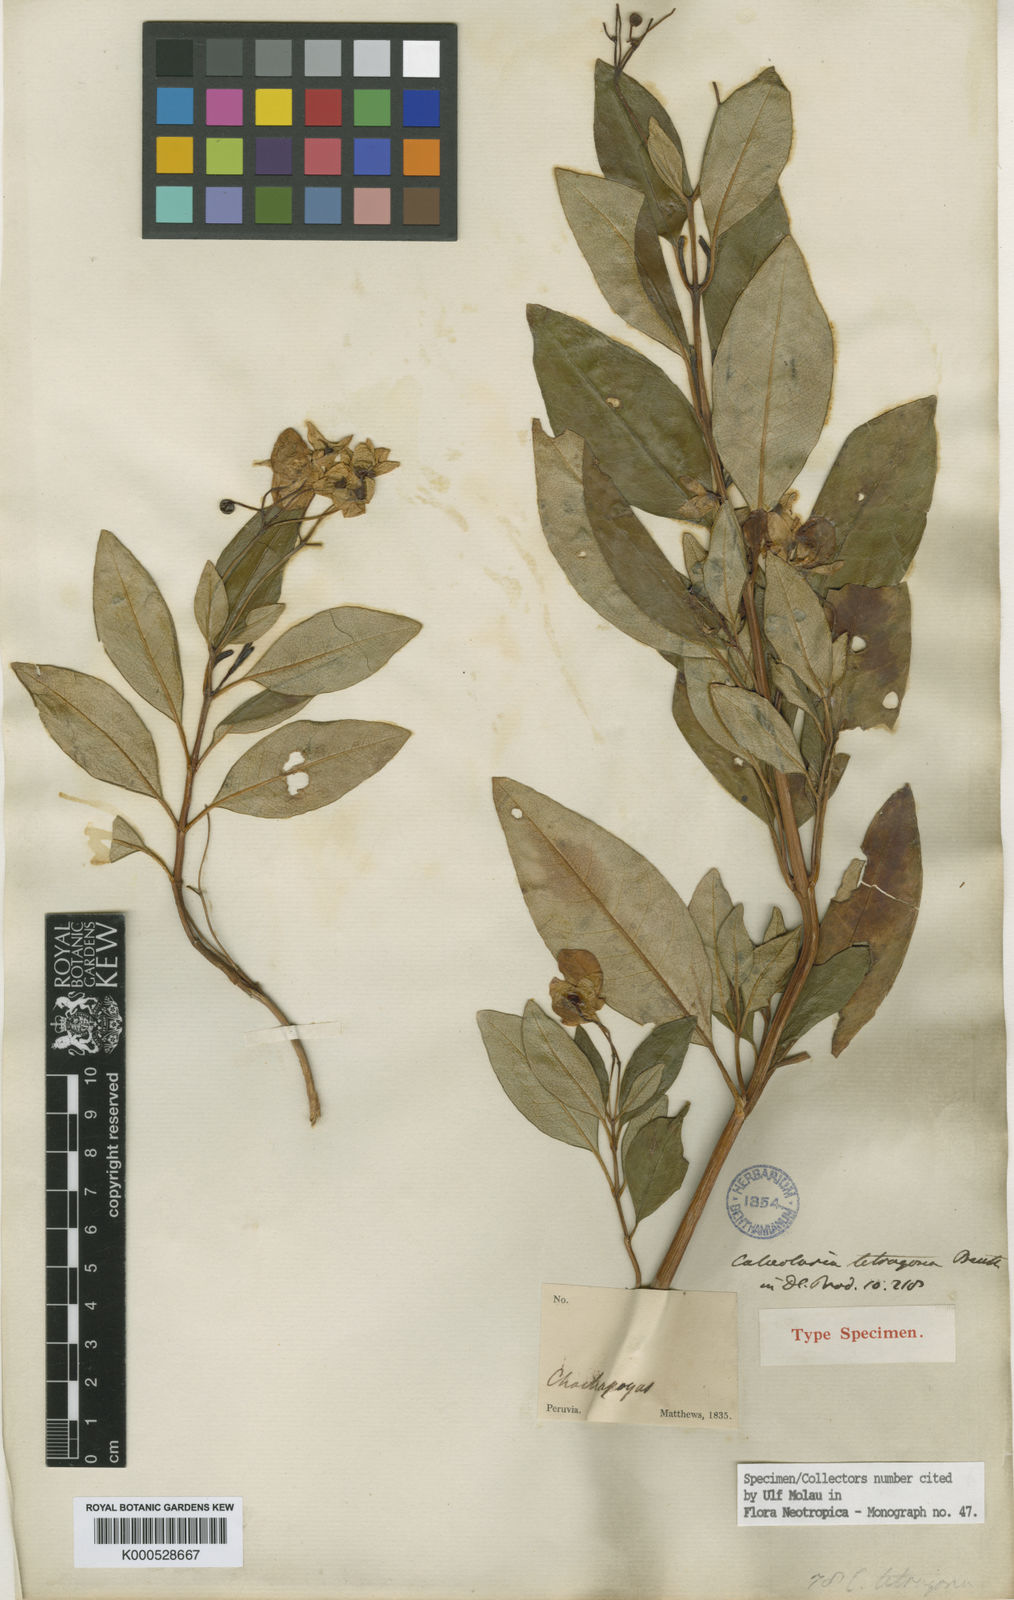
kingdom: Plantae
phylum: Tracheophyta
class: Magnoliopsida
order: Lamiales
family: Calceolariaceae
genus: Calceolaria
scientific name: Calceolaria tetragona
